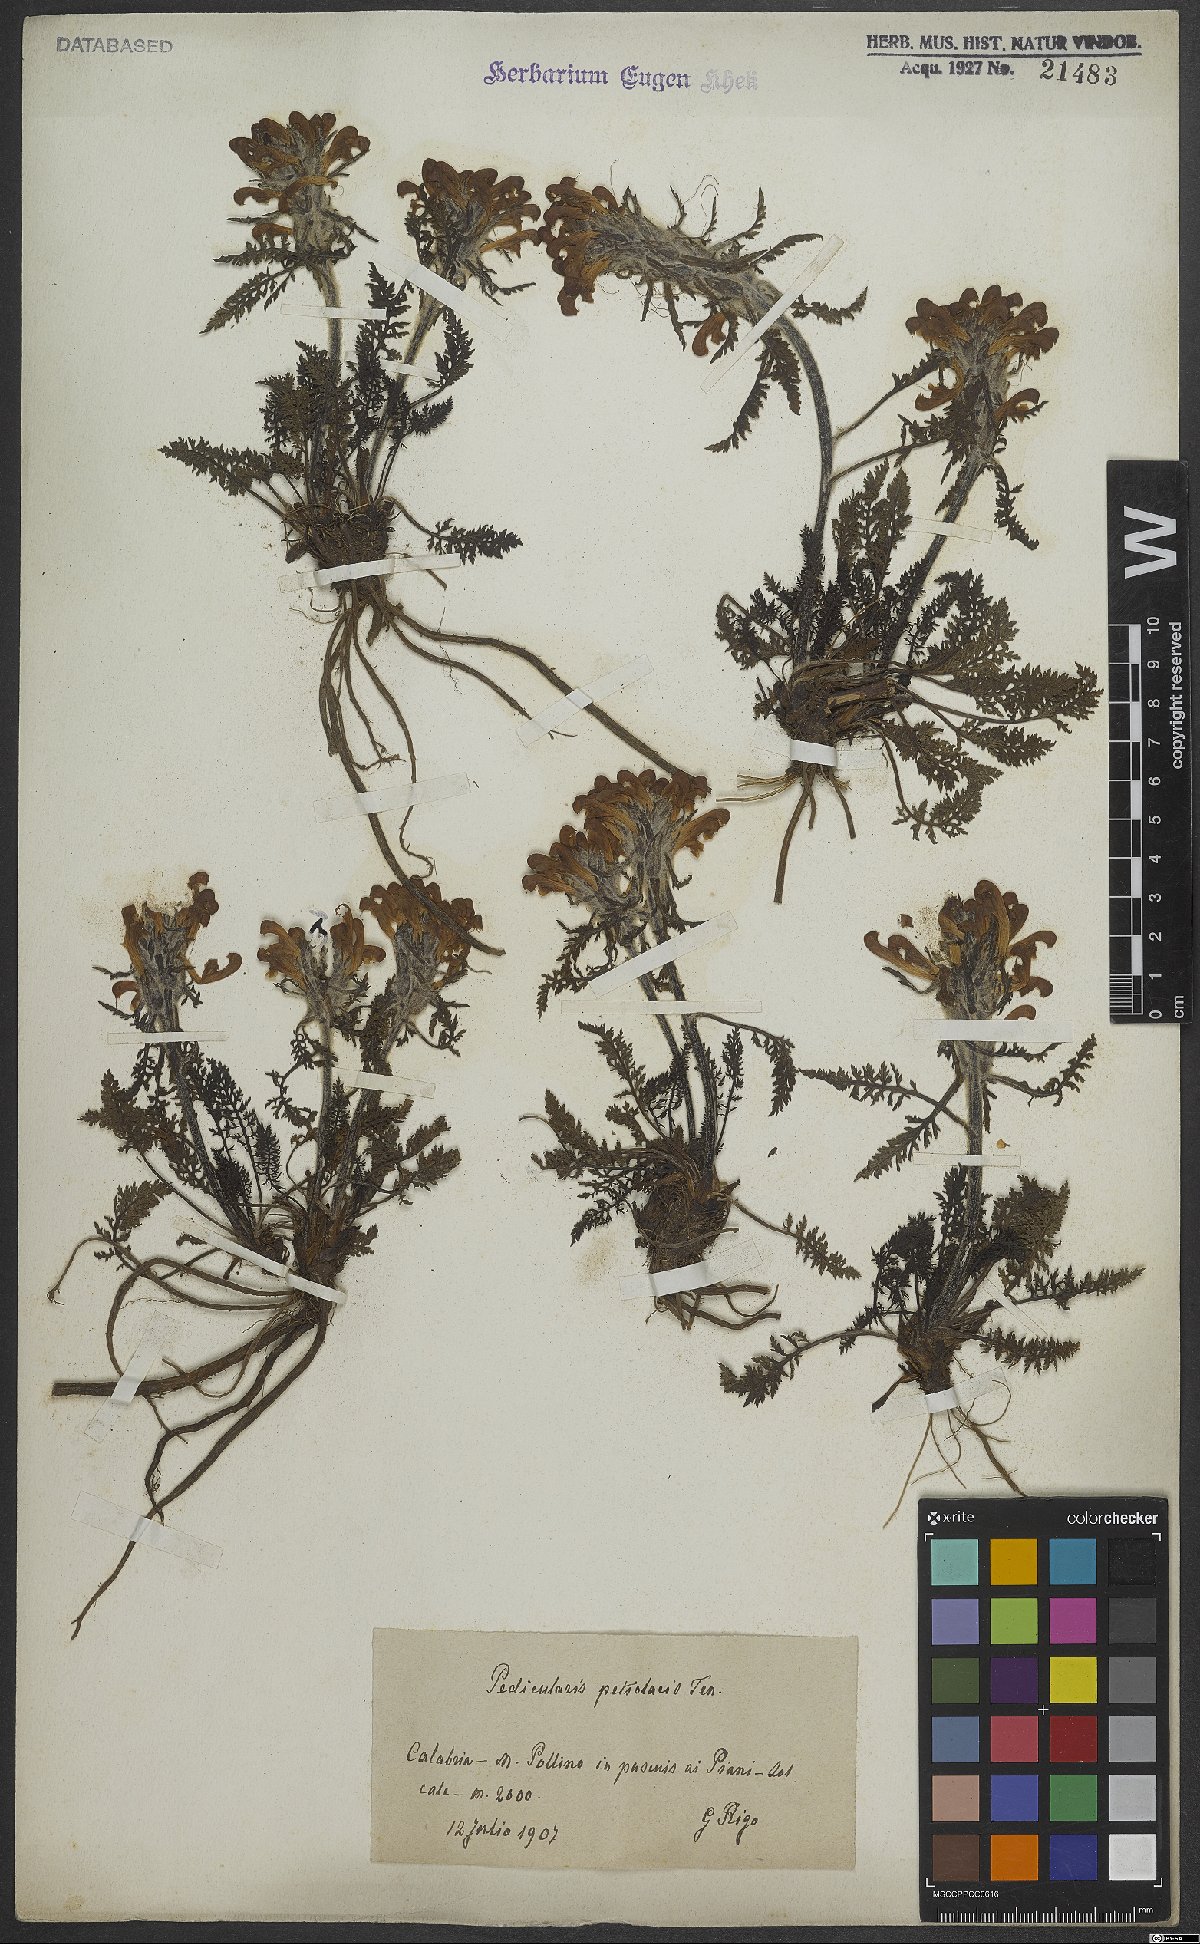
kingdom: Plantae
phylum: Tracheophyta
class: Magnoliopsida
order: Lamiales
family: Orobanchaceae
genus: Pedicularis
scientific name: Pedicularis petiolaris
